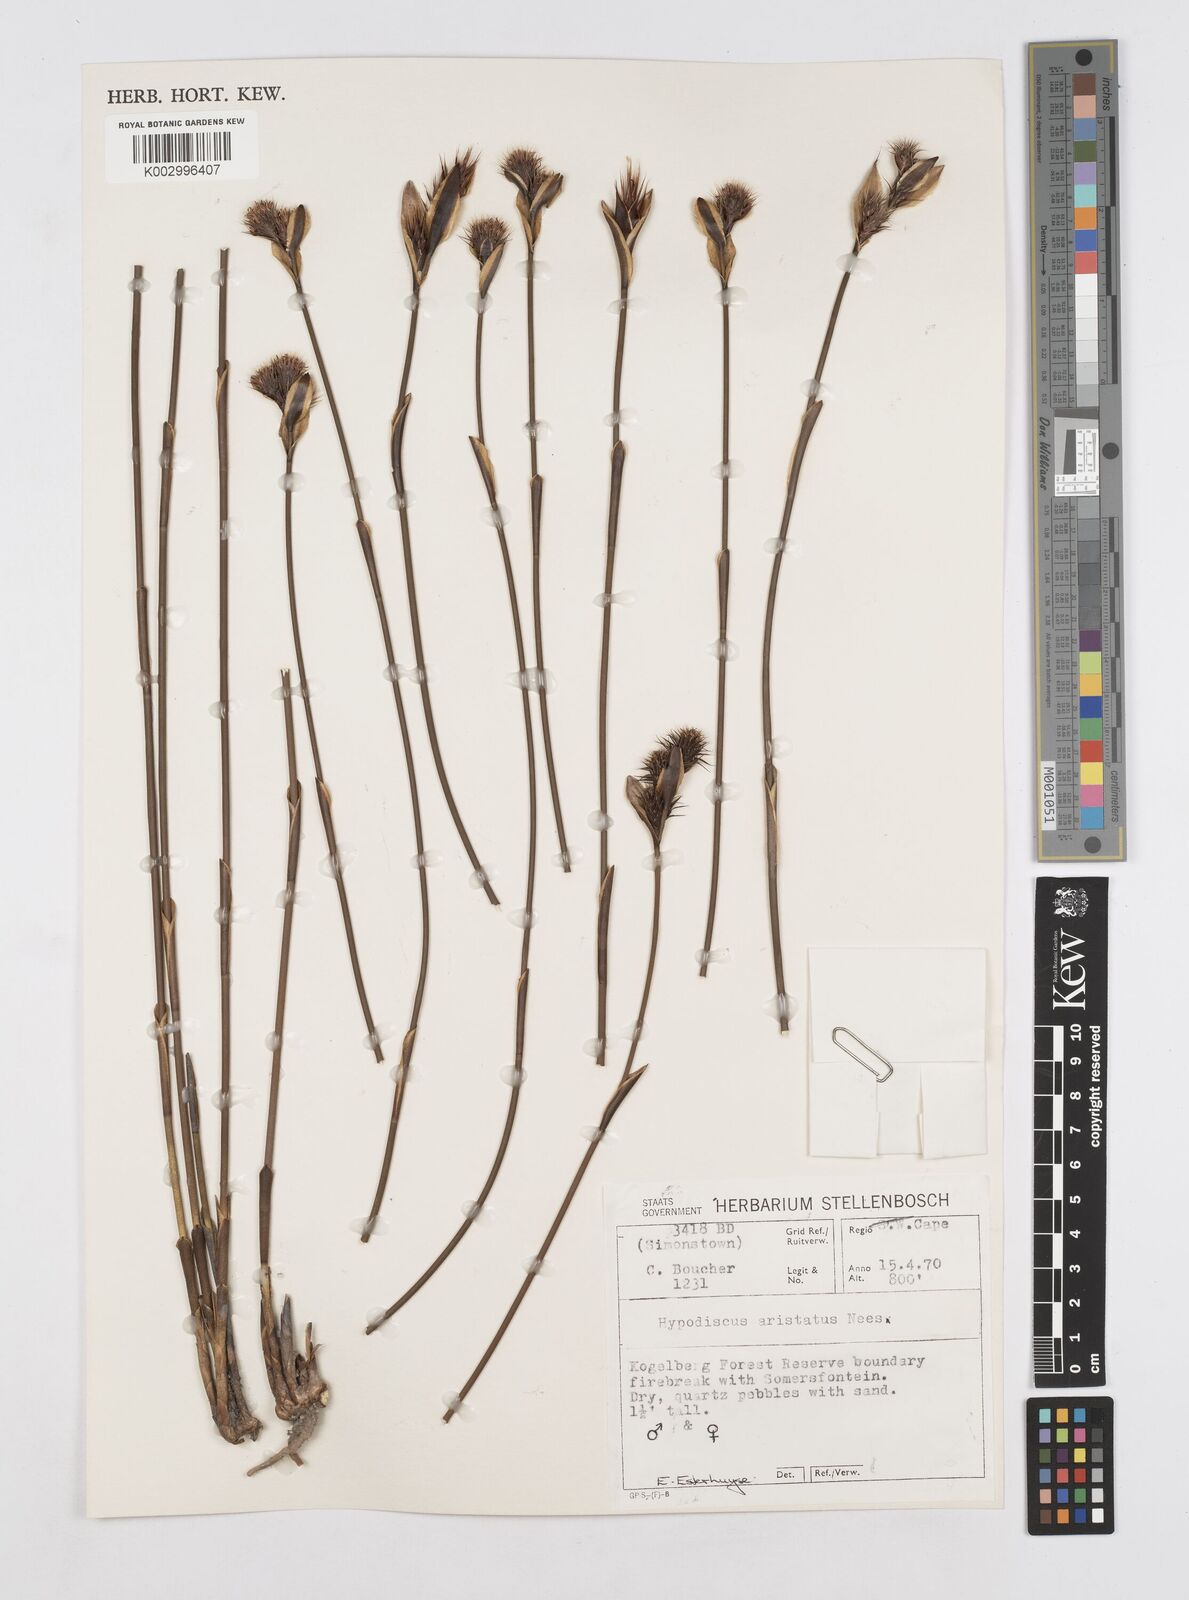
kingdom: Plantae
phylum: Tracheophyta
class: Liliopsida
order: Poales
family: Restionaceae
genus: Hypodiscus
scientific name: Hypodiscus aristatus
